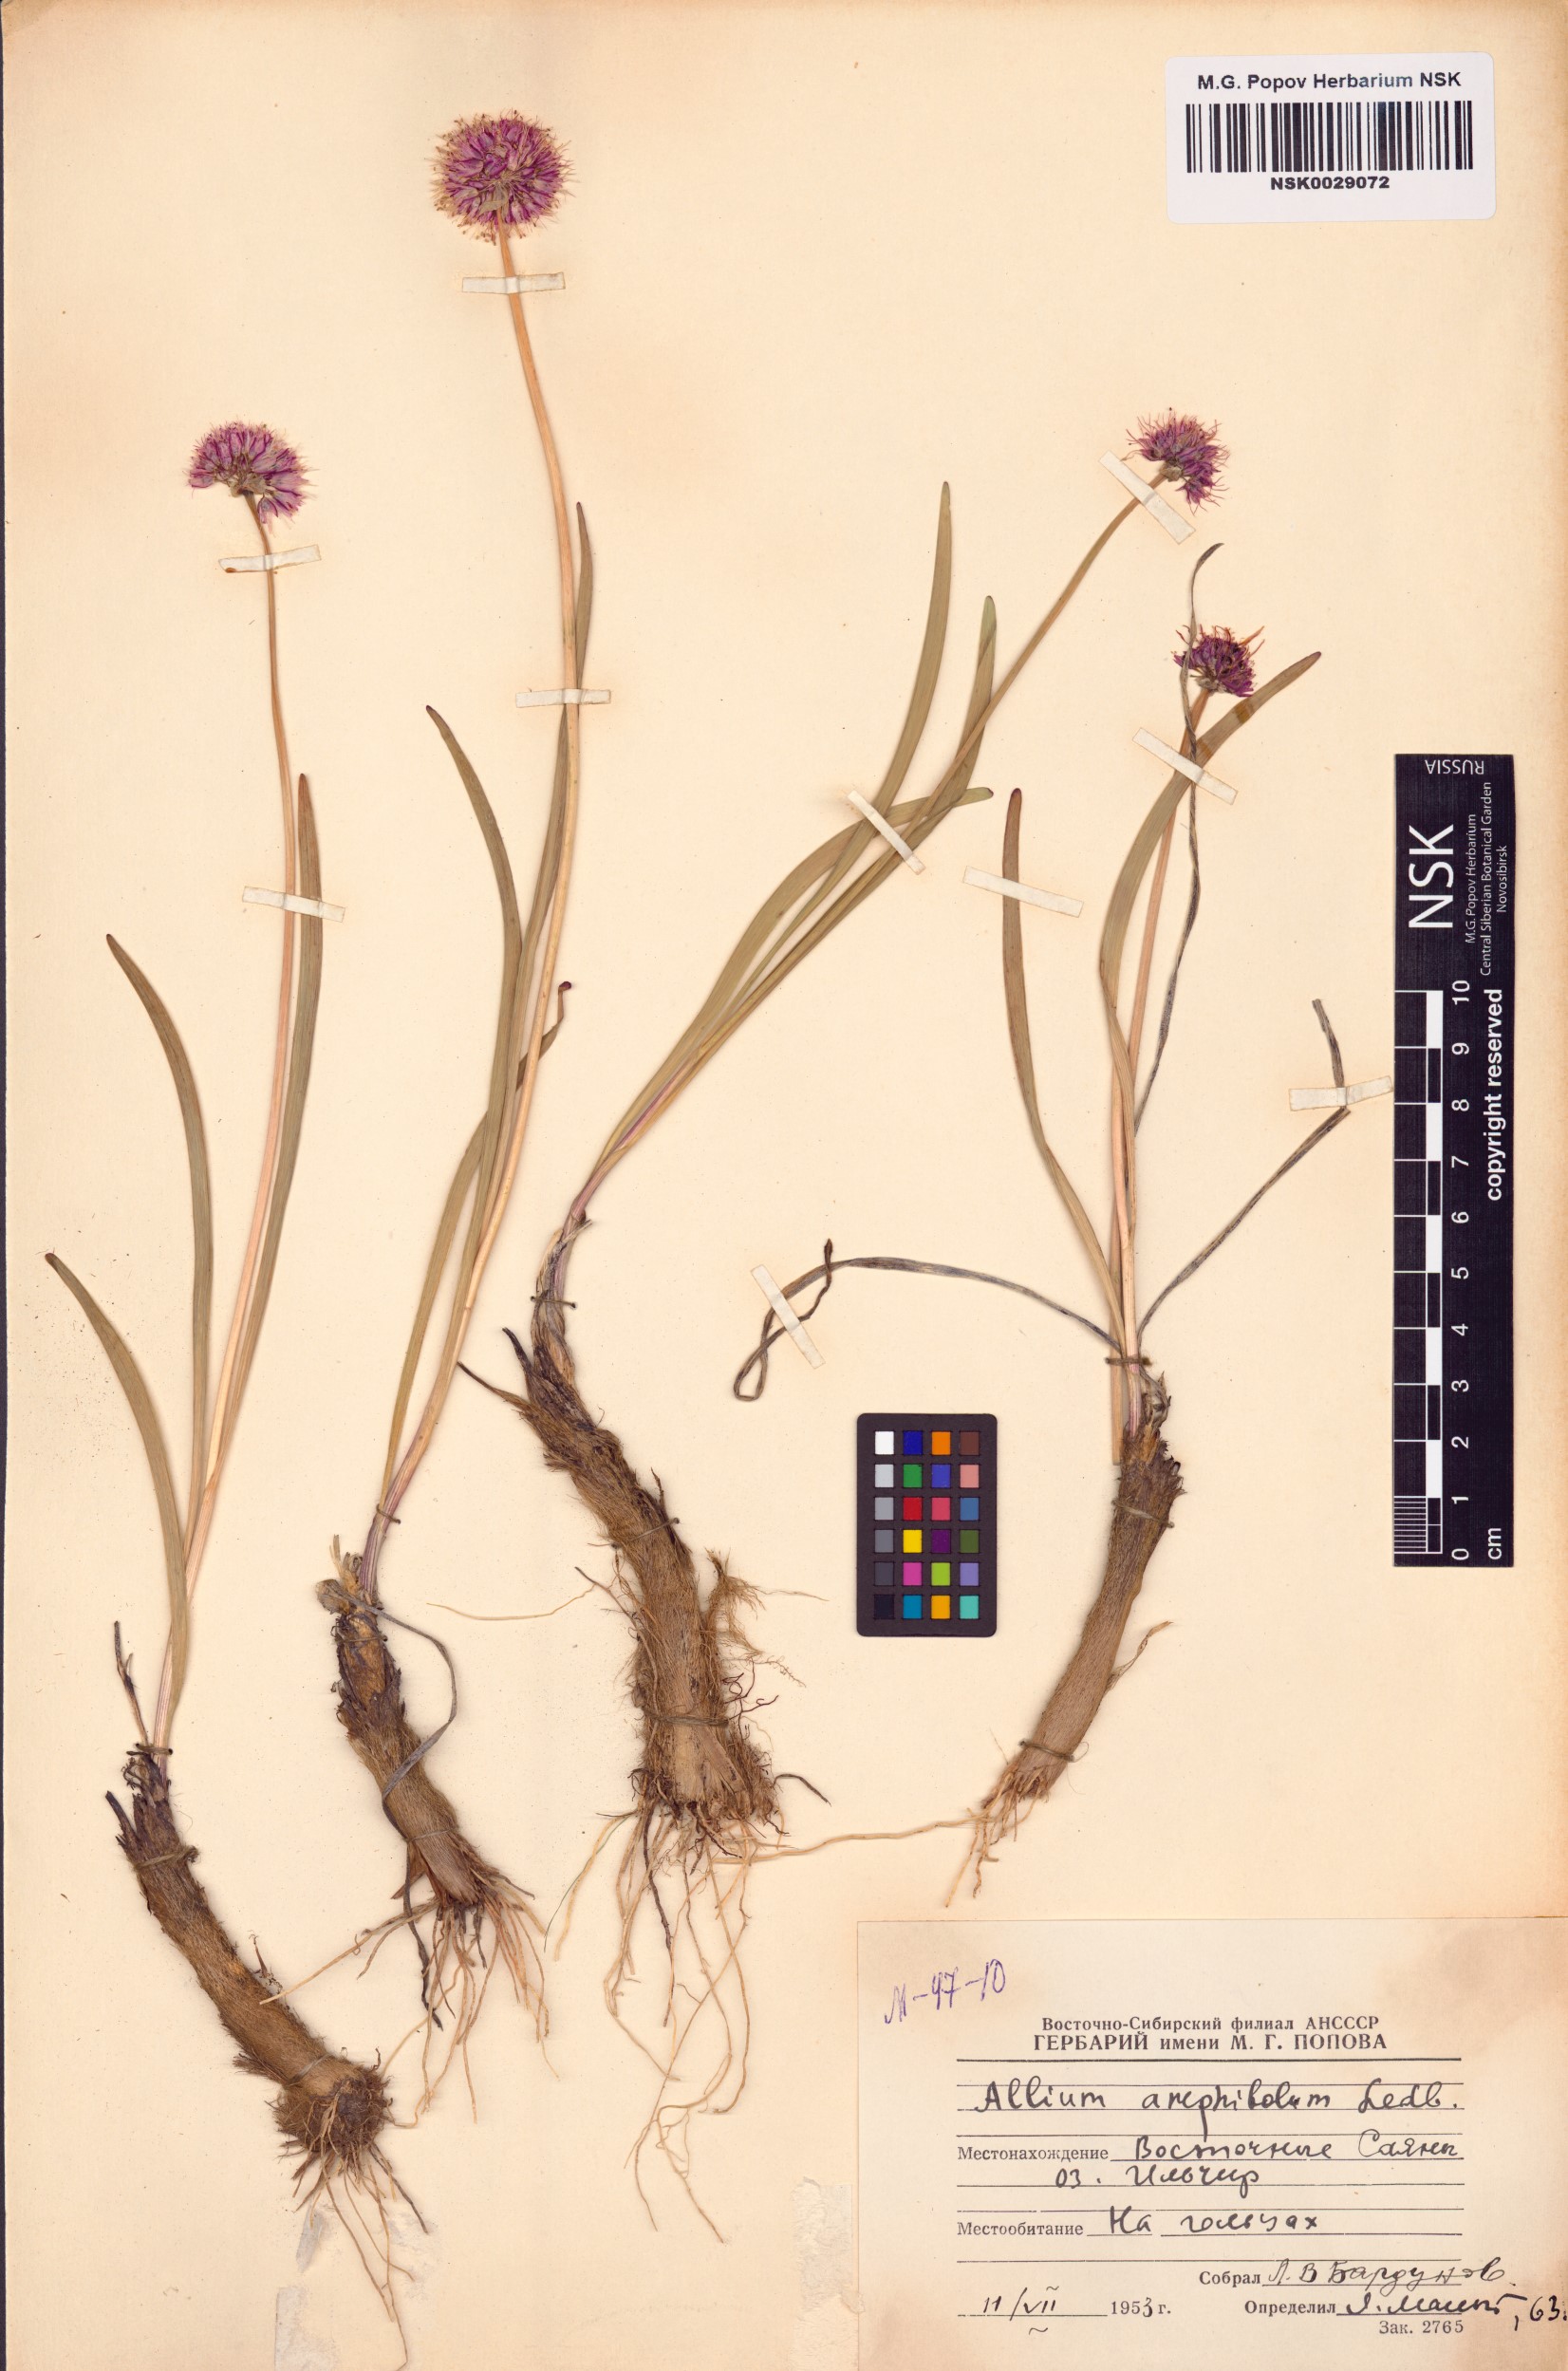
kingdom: Plantae
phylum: Tracheophyta
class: Liliopsida
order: Asparagales
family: Amaryllidaceae
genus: Allium
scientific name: Allium amphibolum
